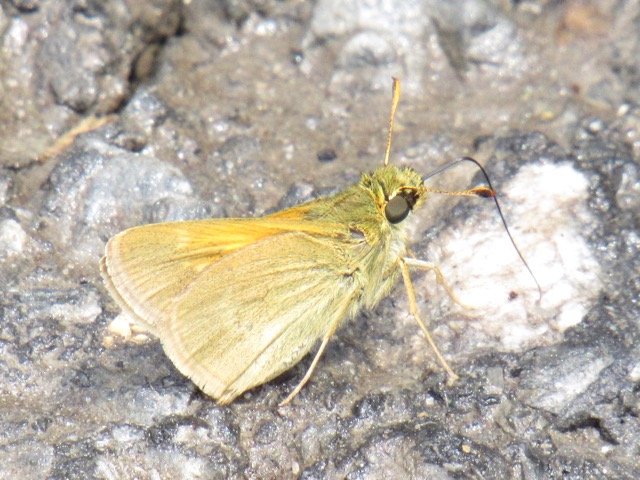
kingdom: Animalia
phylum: Arthropoda
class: Insecta
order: Lepidoptera
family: Hesperiidae
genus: Polites
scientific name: Polites themistocles
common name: Tawny-edged Skipper
